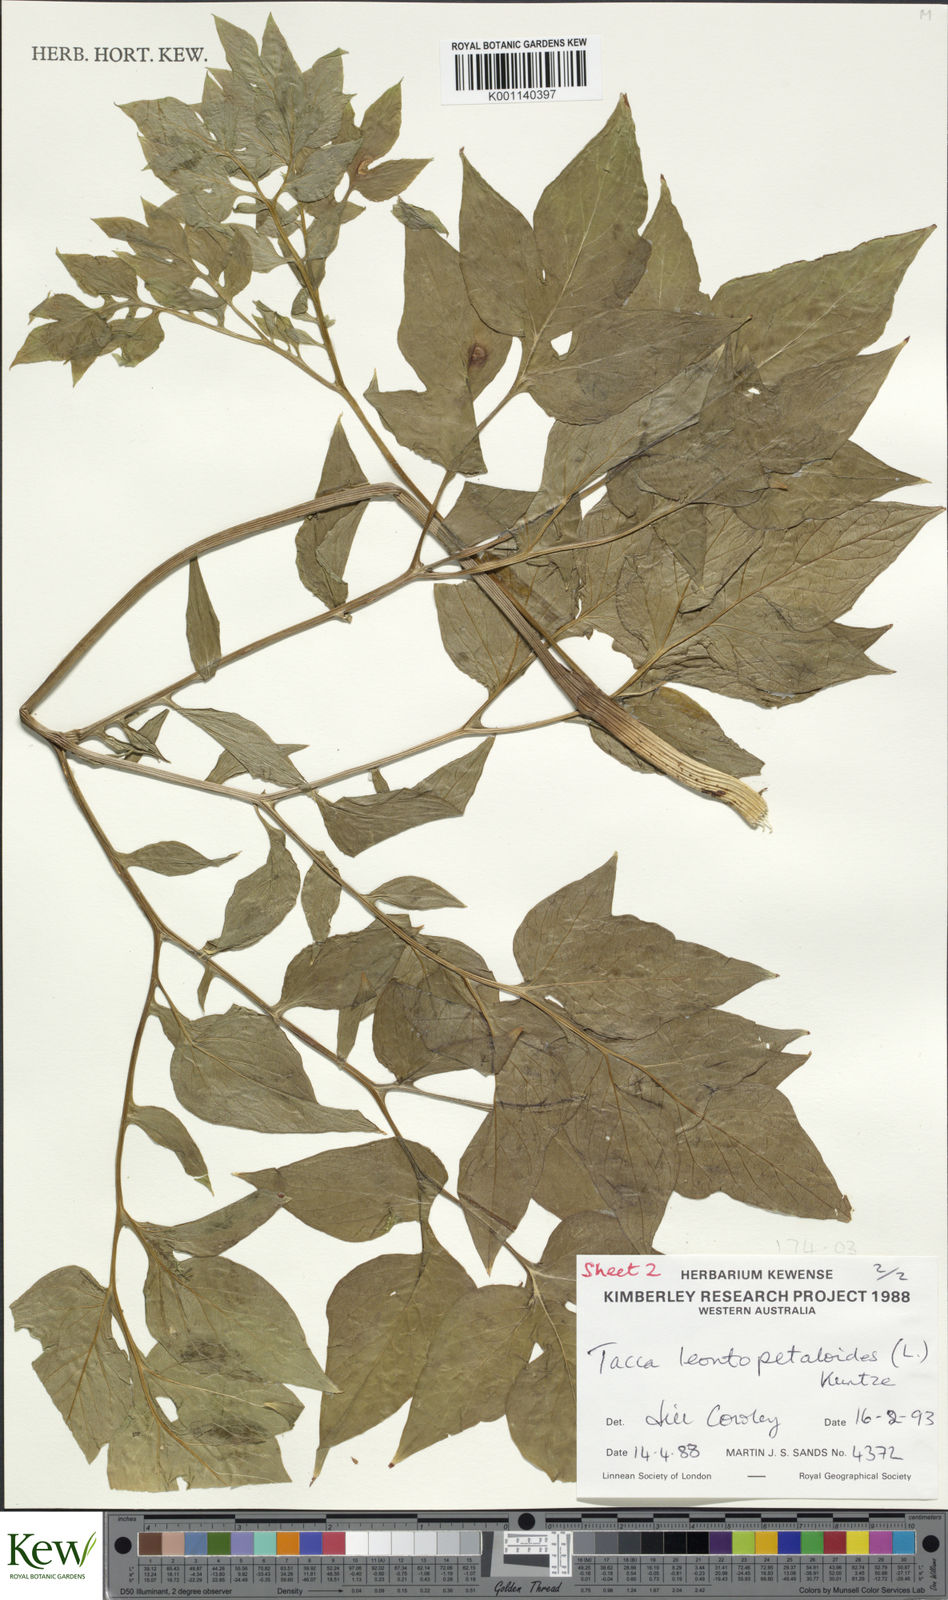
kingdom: Plantae
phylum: Tracheophyta
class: Liliopsida
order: Dioscoreales
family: Dioscoreaceae
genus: Tacca
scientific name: Tacca leontopetaloides
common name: Arrowroot
